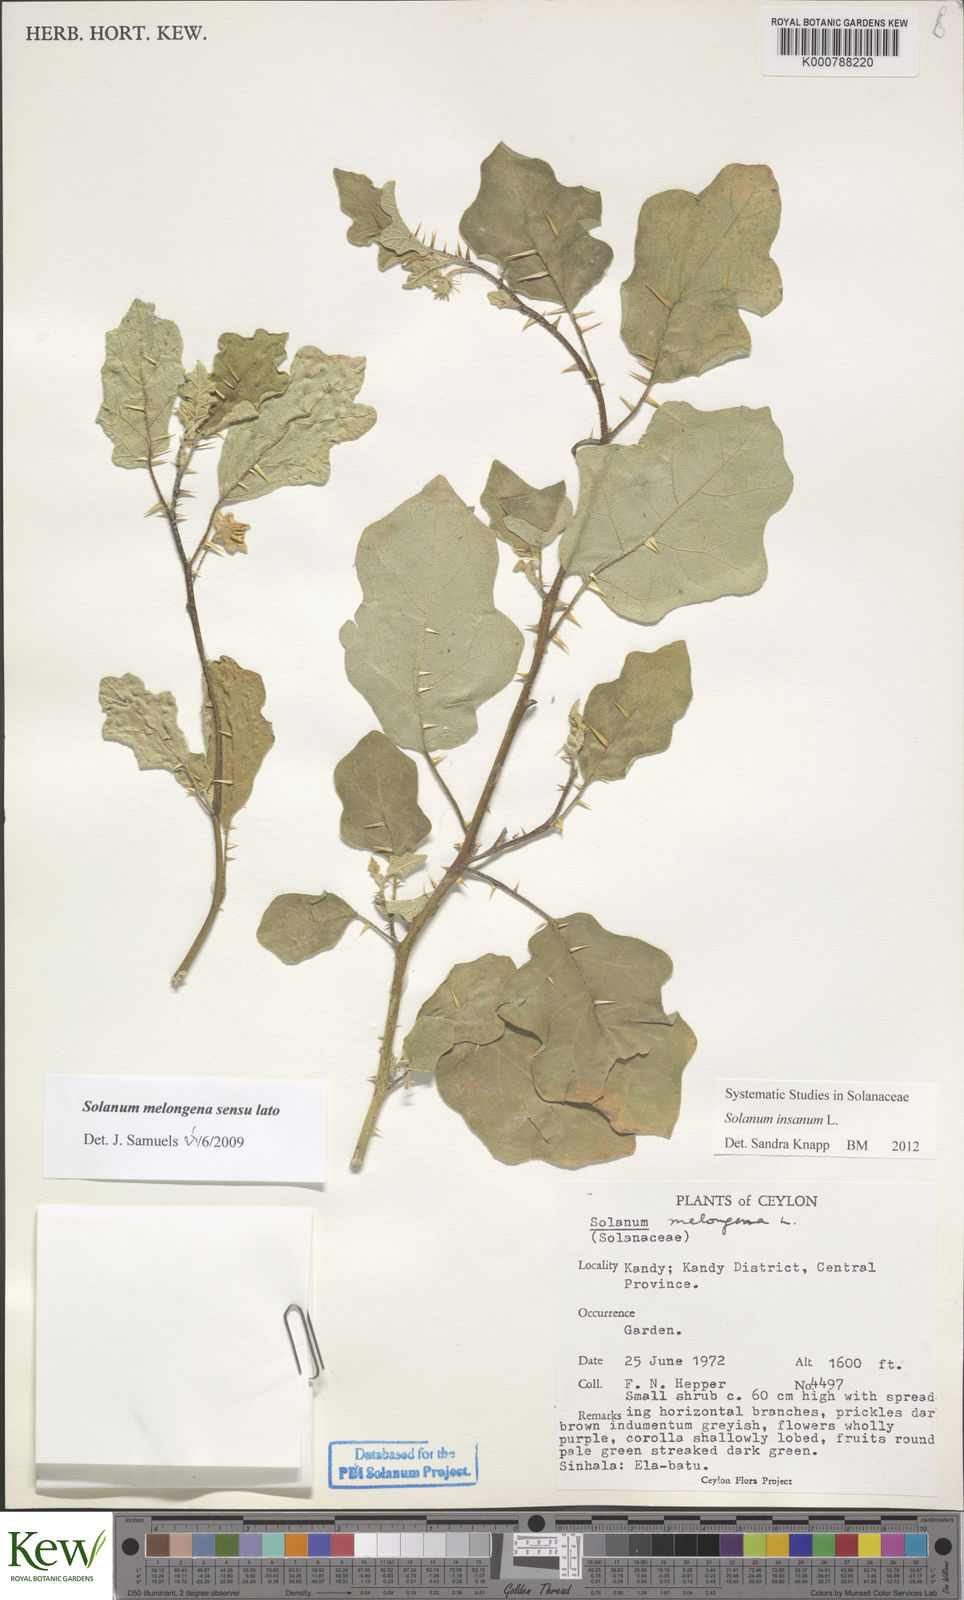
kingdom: Plantae
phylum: Tracheophyta
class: Magnoliopsida
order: Solanales
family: Solanaceae
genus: Solanum
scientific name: Solanum insanum
